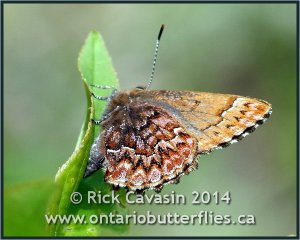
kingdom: Animalia
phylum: Arthropoda
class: Insecta
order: Lepidoptera
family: Lycaenidae
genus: Incisalia
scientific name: Incisalia eryphon
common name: Western Pine Elfin
